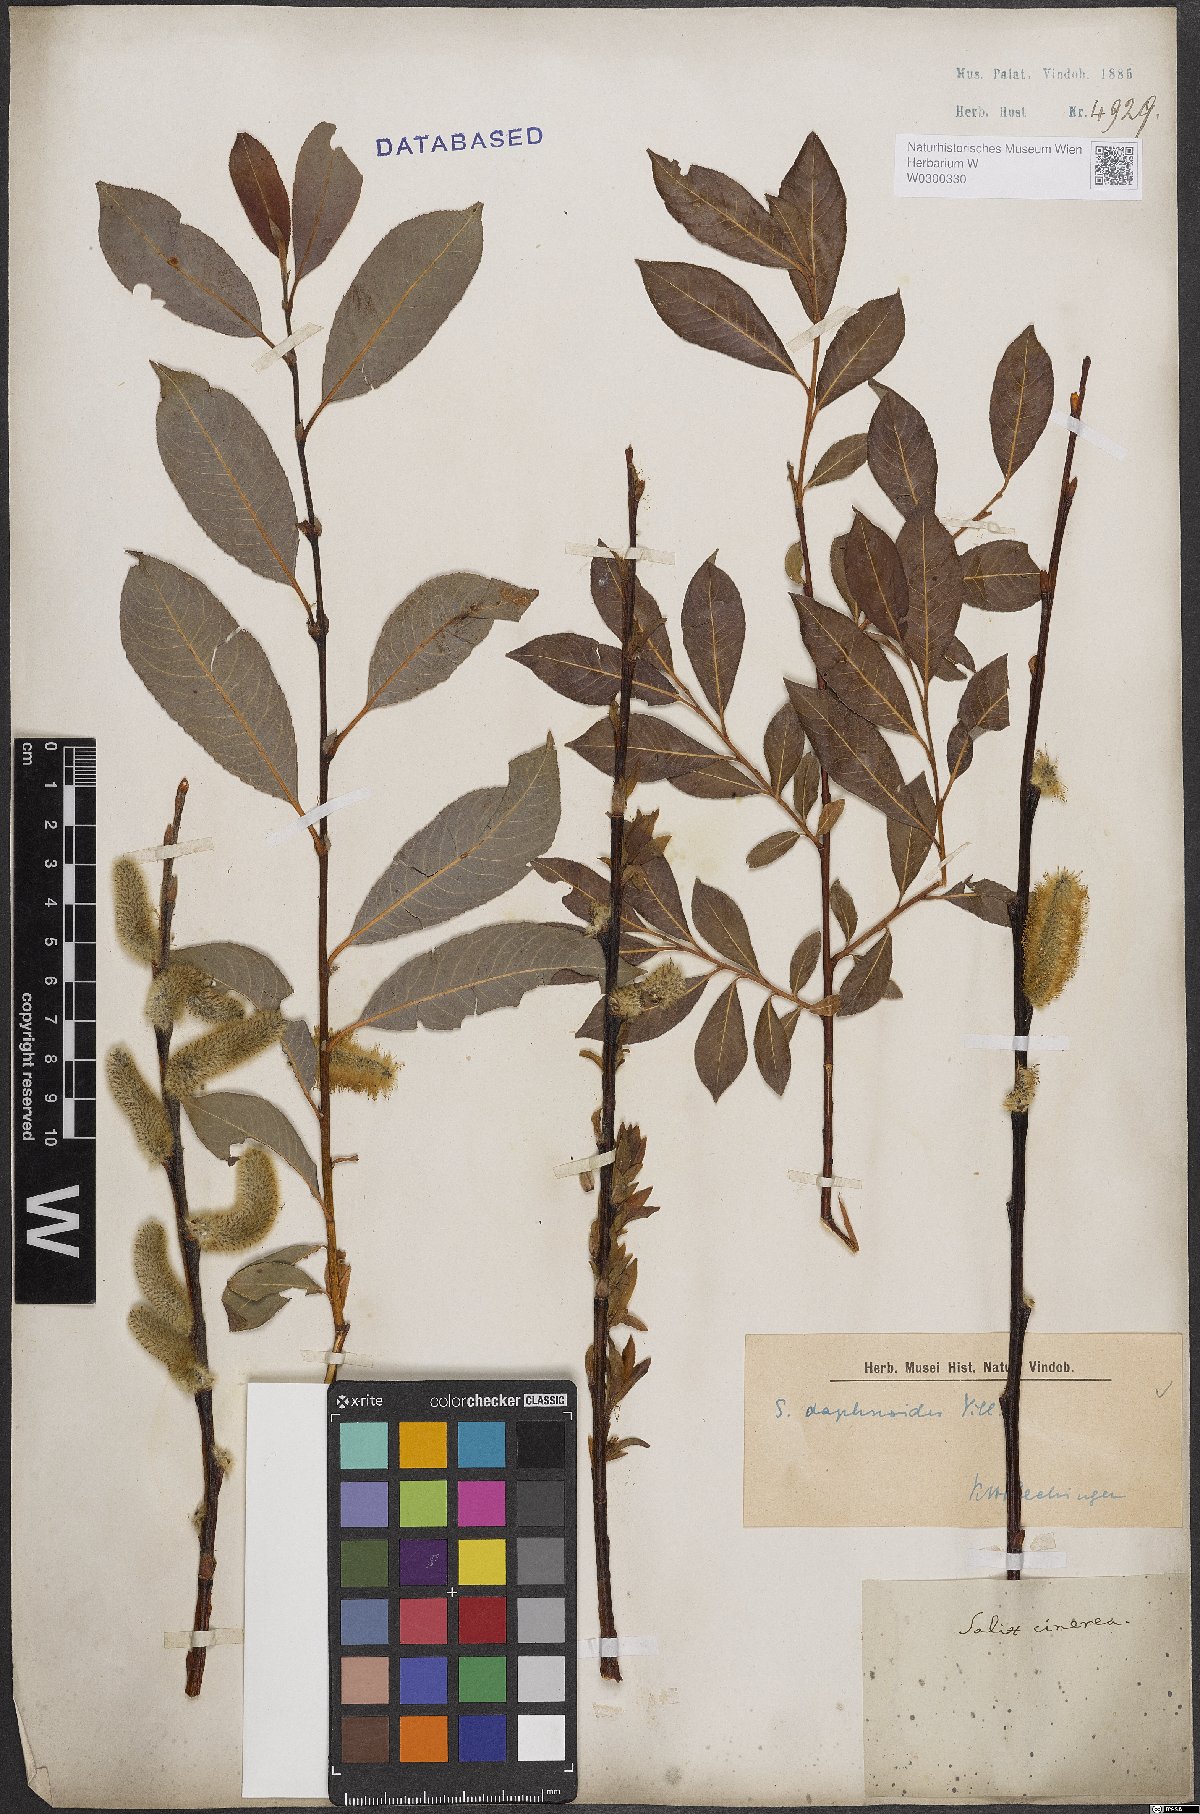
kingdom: Plantae
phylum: Tracheophyta
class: Magnoliopsida
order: Malpighiales
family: Salicaceae
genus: Salix
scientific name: Salix daphnoides
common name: European violet-willow
